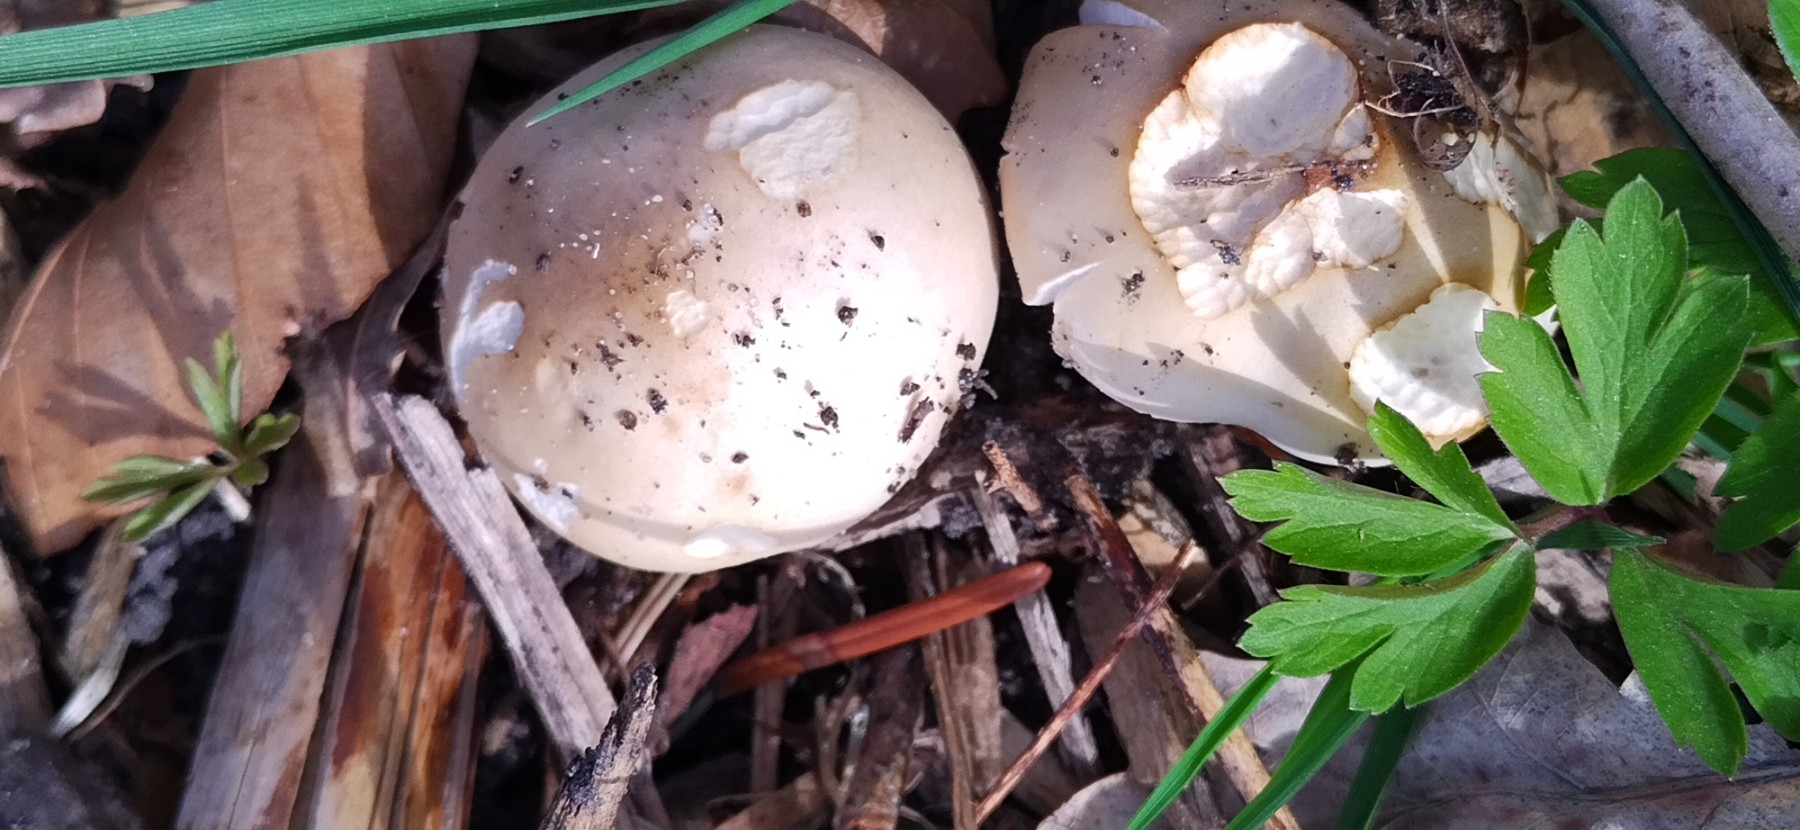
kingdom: Fungi
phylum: Basidiomycota
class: Agaricomycetes
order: Agaricales
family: Lyophyllaceae
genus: Calocybe
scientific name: Calocybe gambosa
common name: vårmusseron
